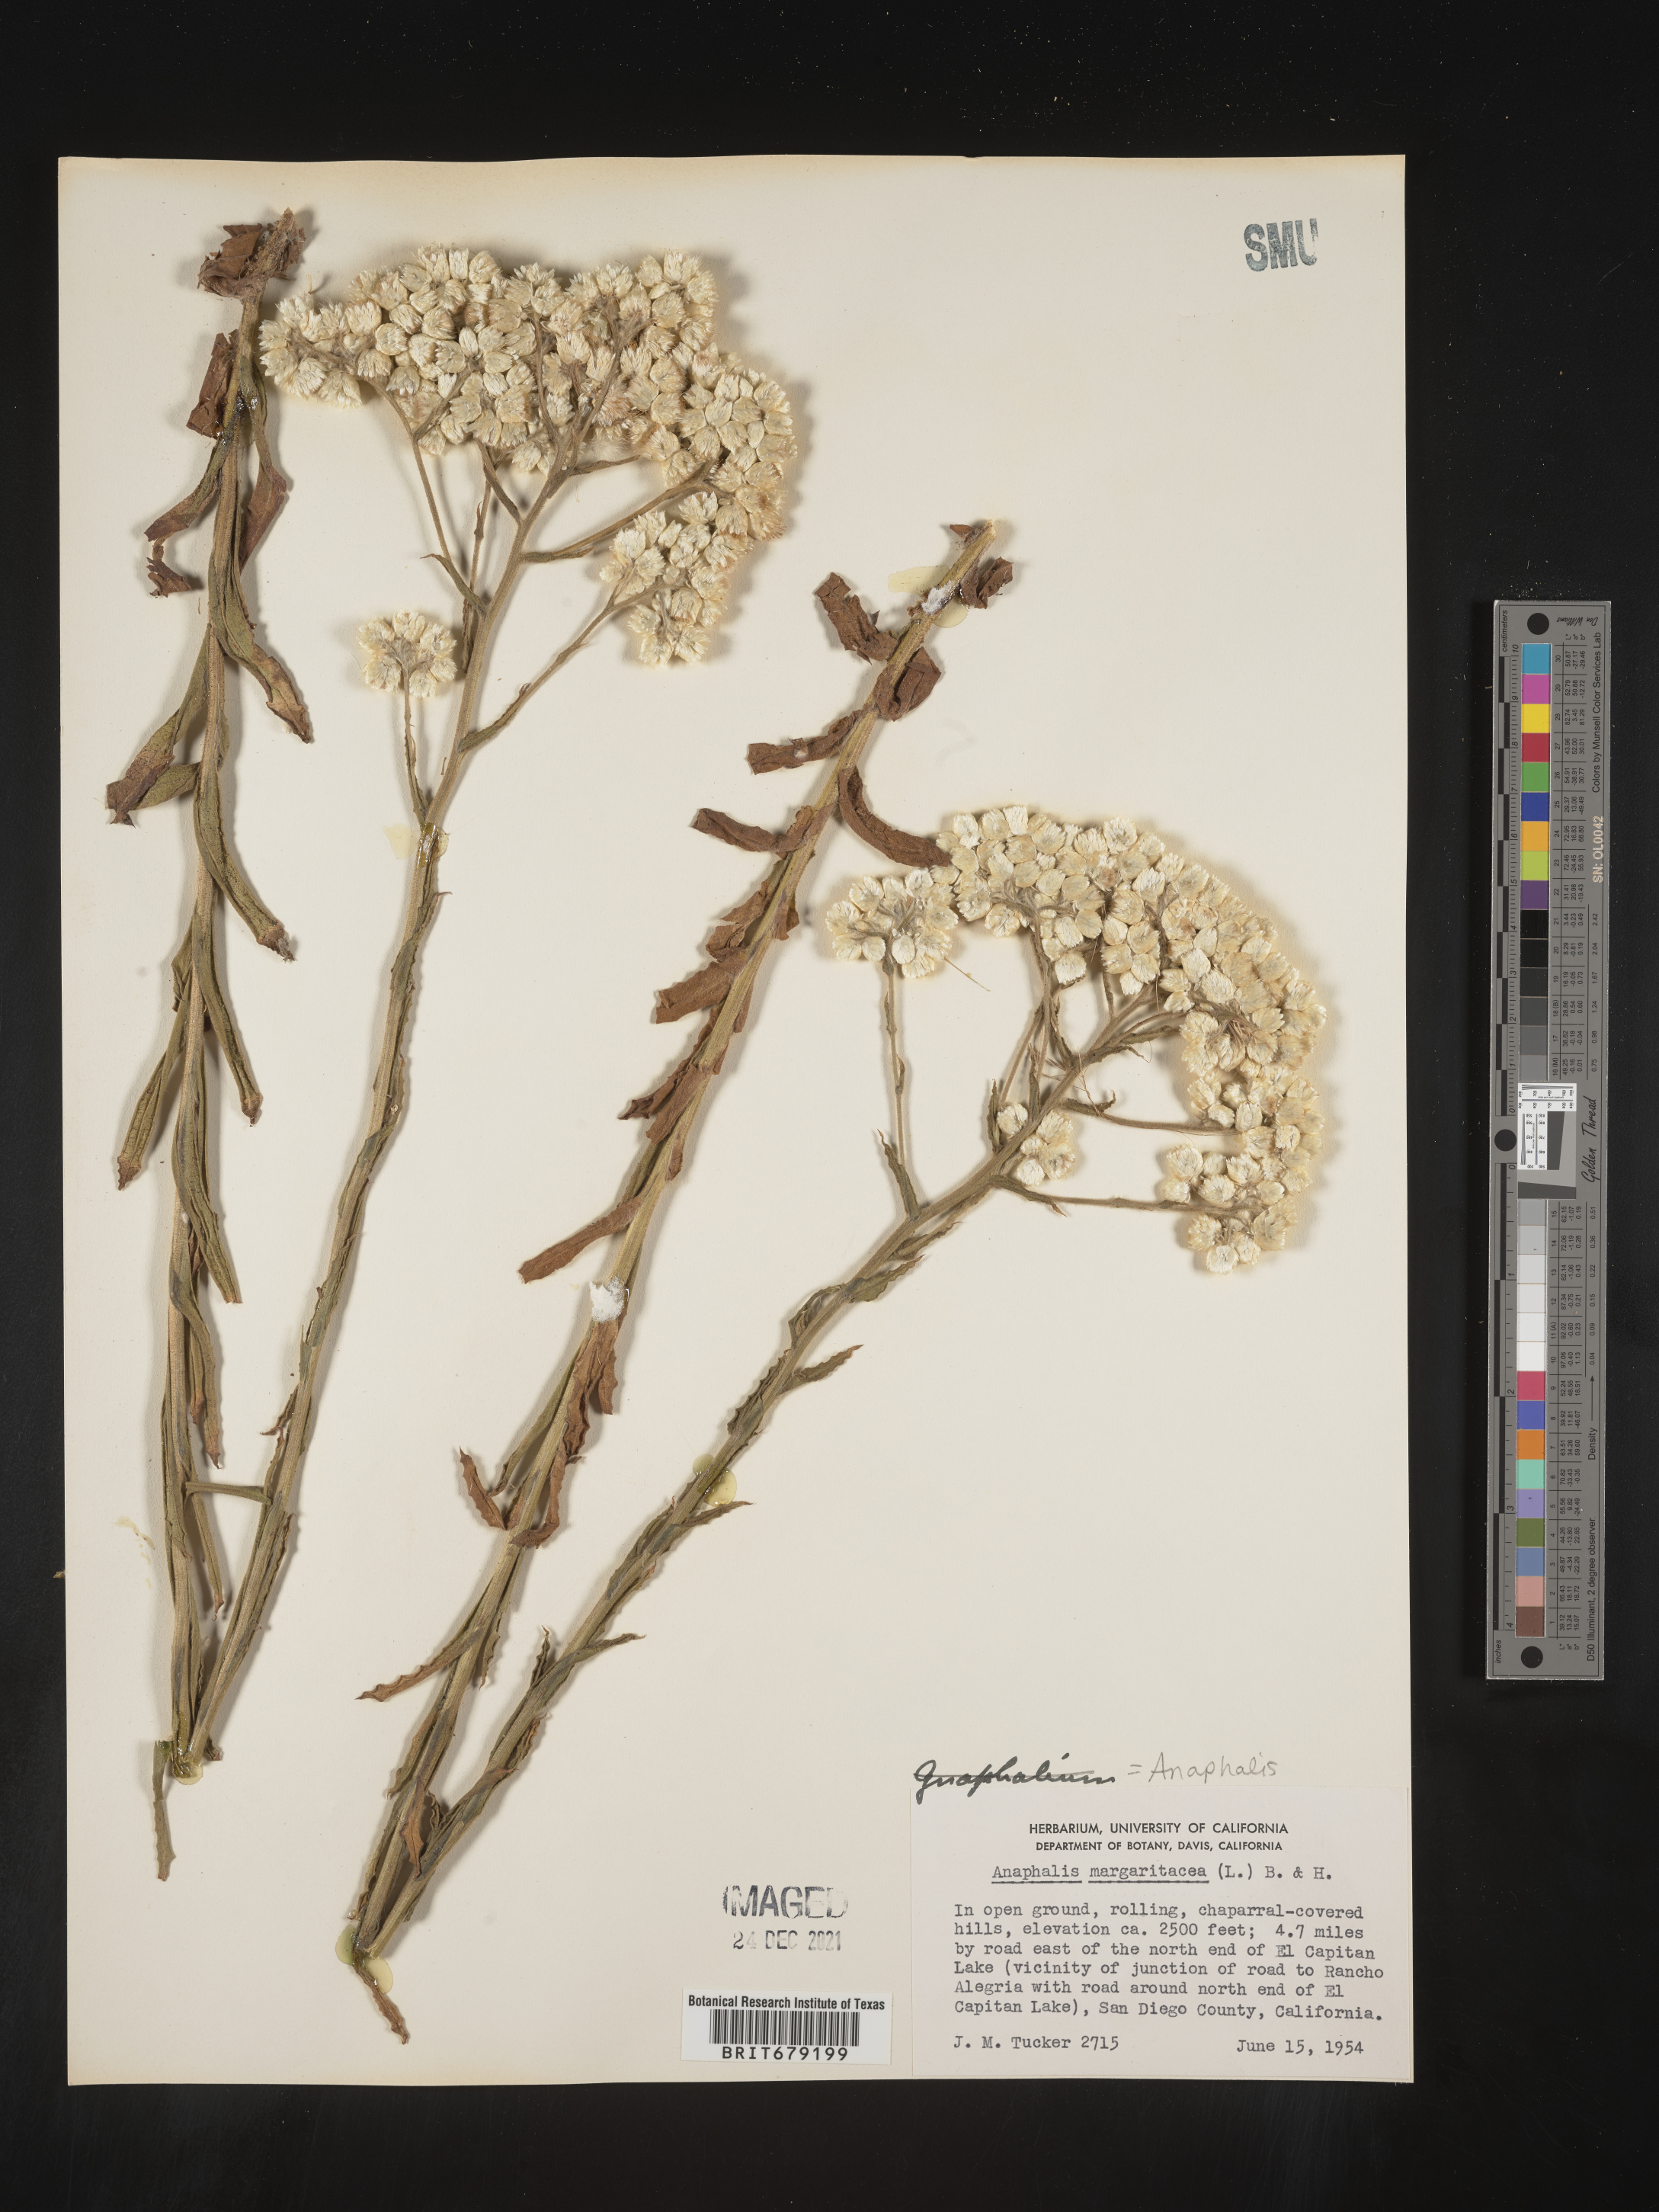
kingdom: Plantae
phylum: Tracheophyta
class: Magnoliopsida
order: Asterales
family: Asteraceae
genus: Anaphalis
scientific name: Anaphalis margaritacea
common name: Pearly everlasting
